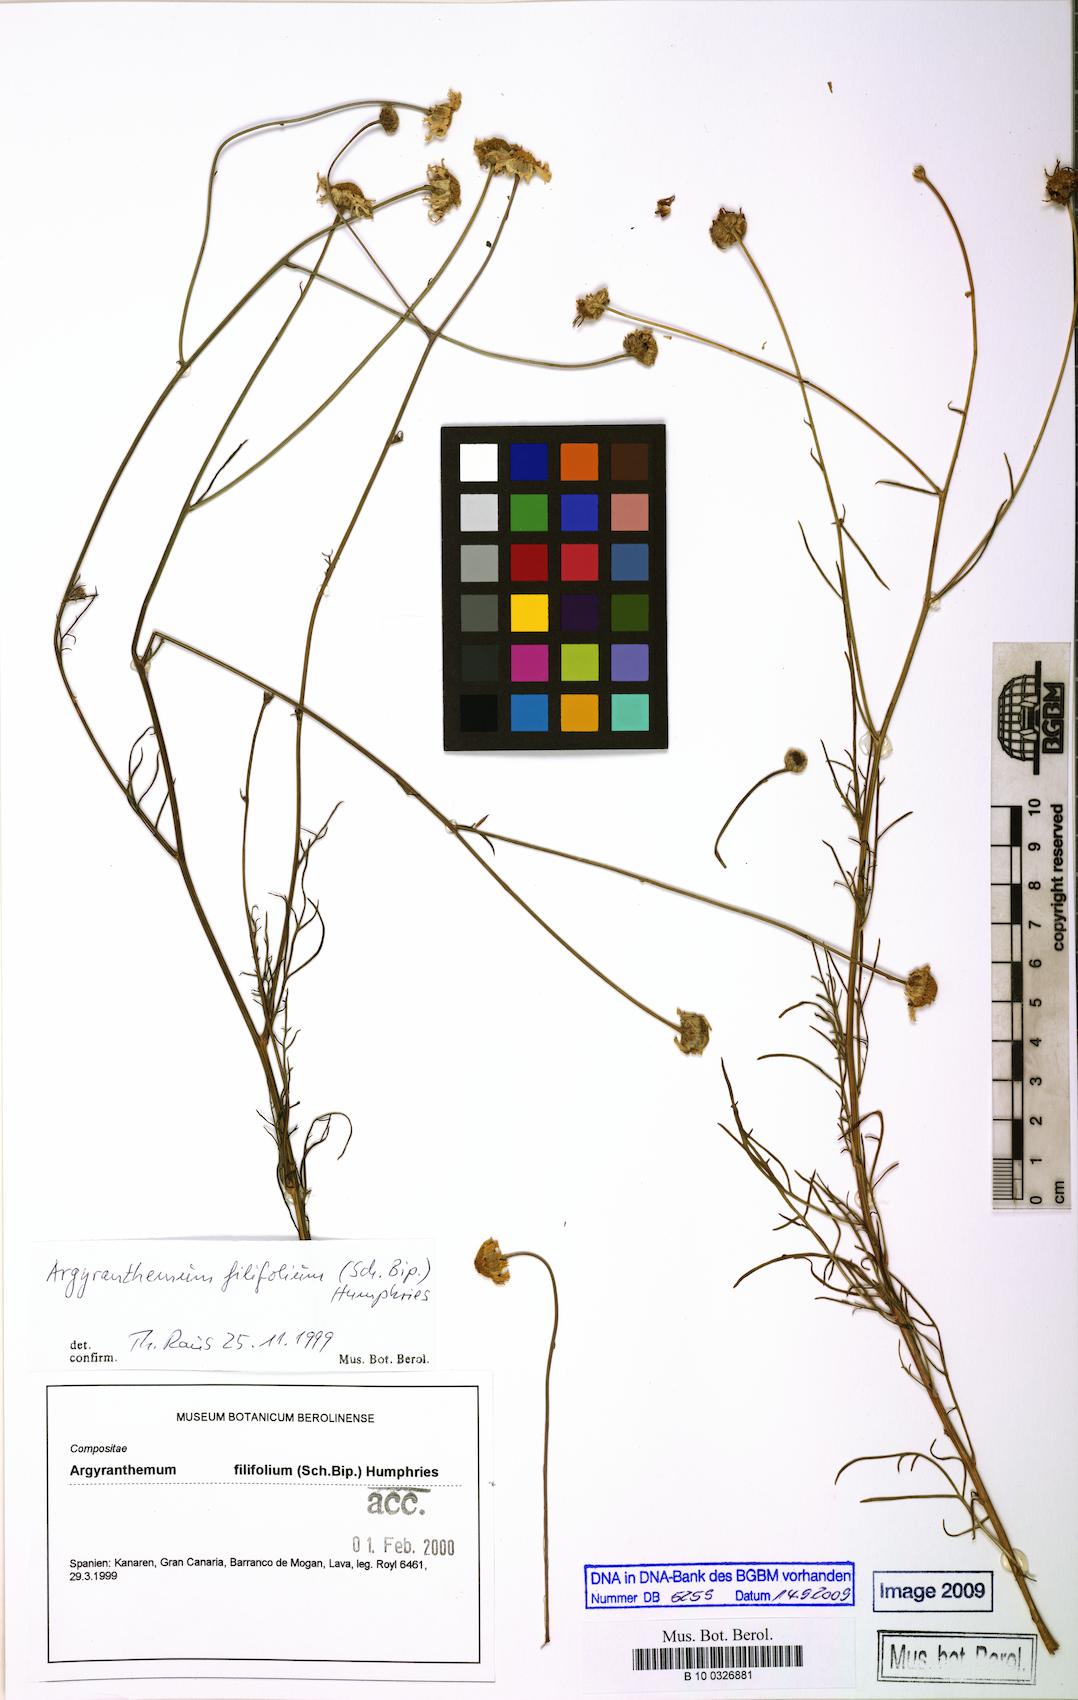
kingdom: Plantae
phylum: Tracheophyta
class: Magnoliopsida
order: Asterales
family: Asteraceae
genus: Argyranthemum
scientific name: Argyranthemum filifolium
